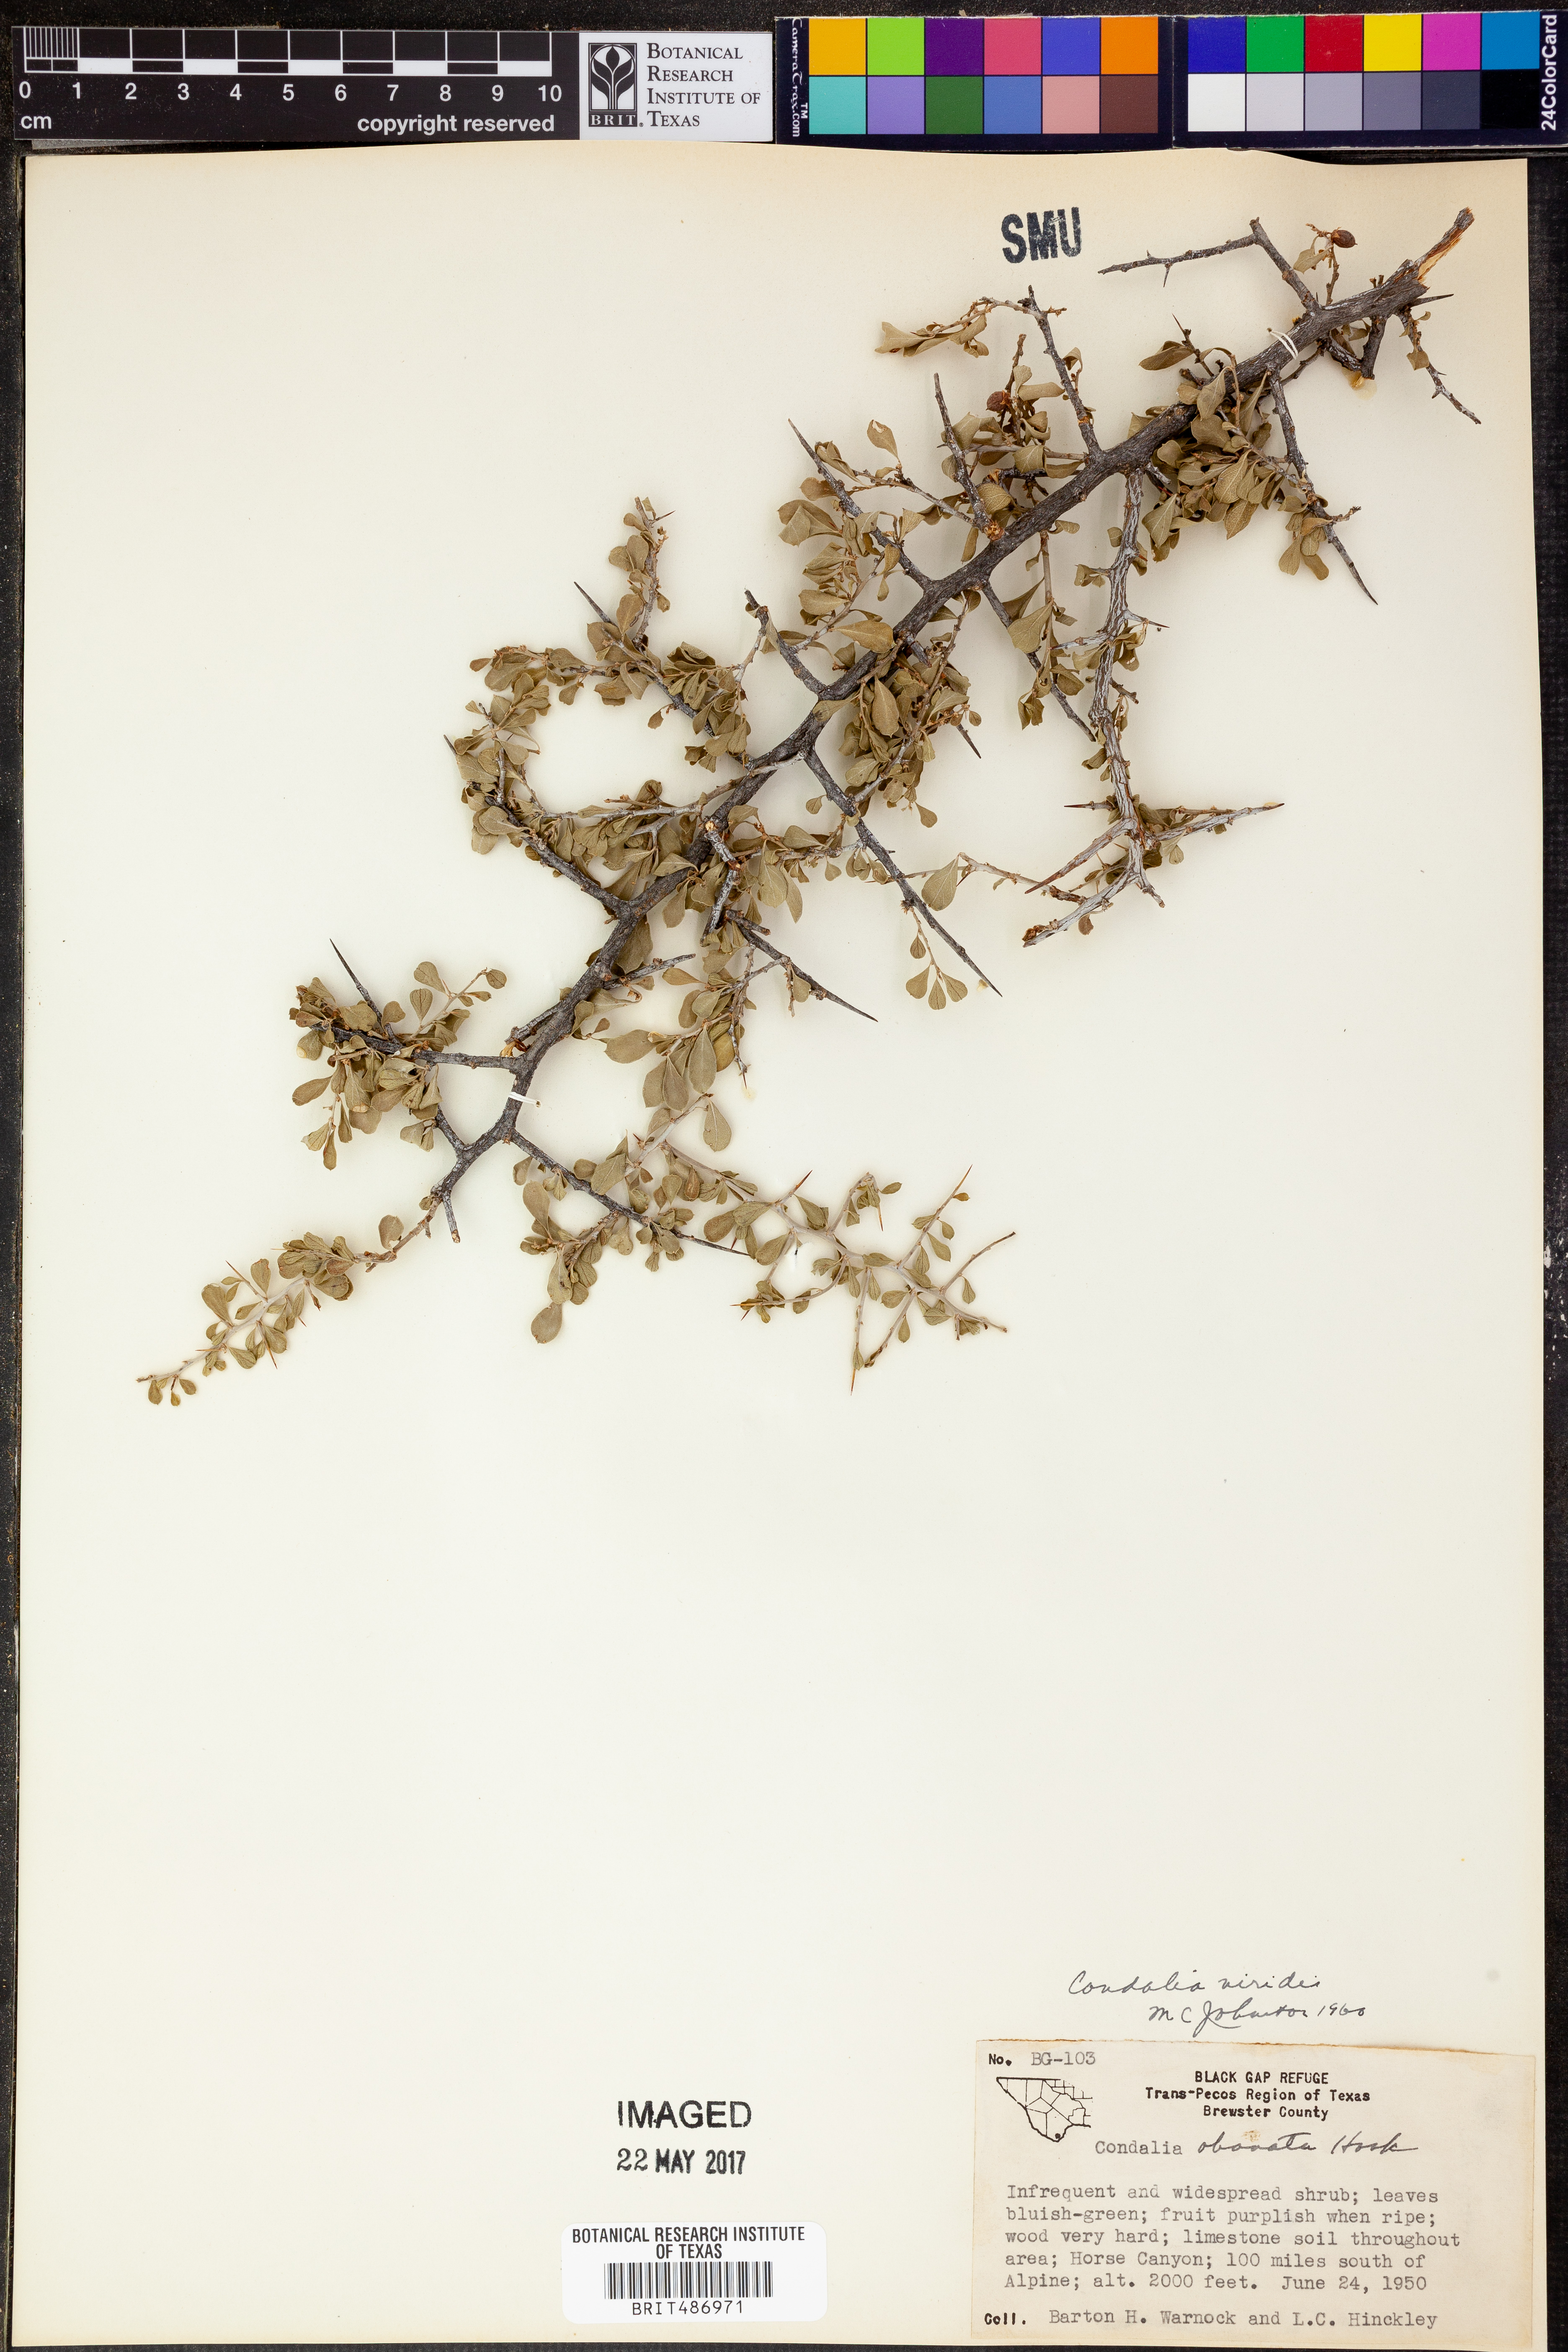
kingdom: Plantae
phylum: Tracheophyta
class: Magnoliopsida
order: Rosales
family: Rhamnaceae
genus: Condalia
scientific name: Condalia viridis
